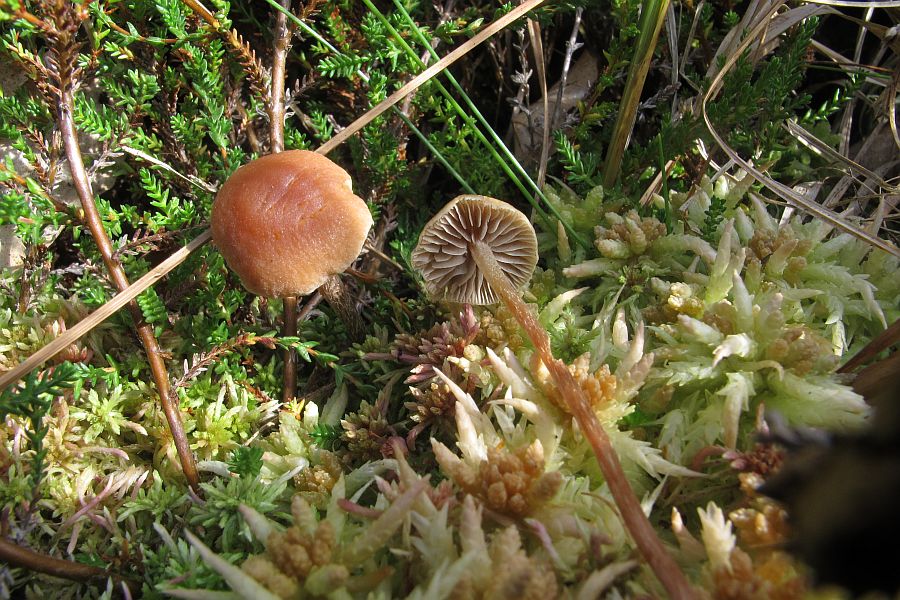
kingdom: Fungi
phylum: Basidiomycota
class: Agaricomycetes
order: Agaricales
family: Strophariaceae
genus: Bogbodia
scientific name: Bogbodia uda
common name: tørve-svovlhat
